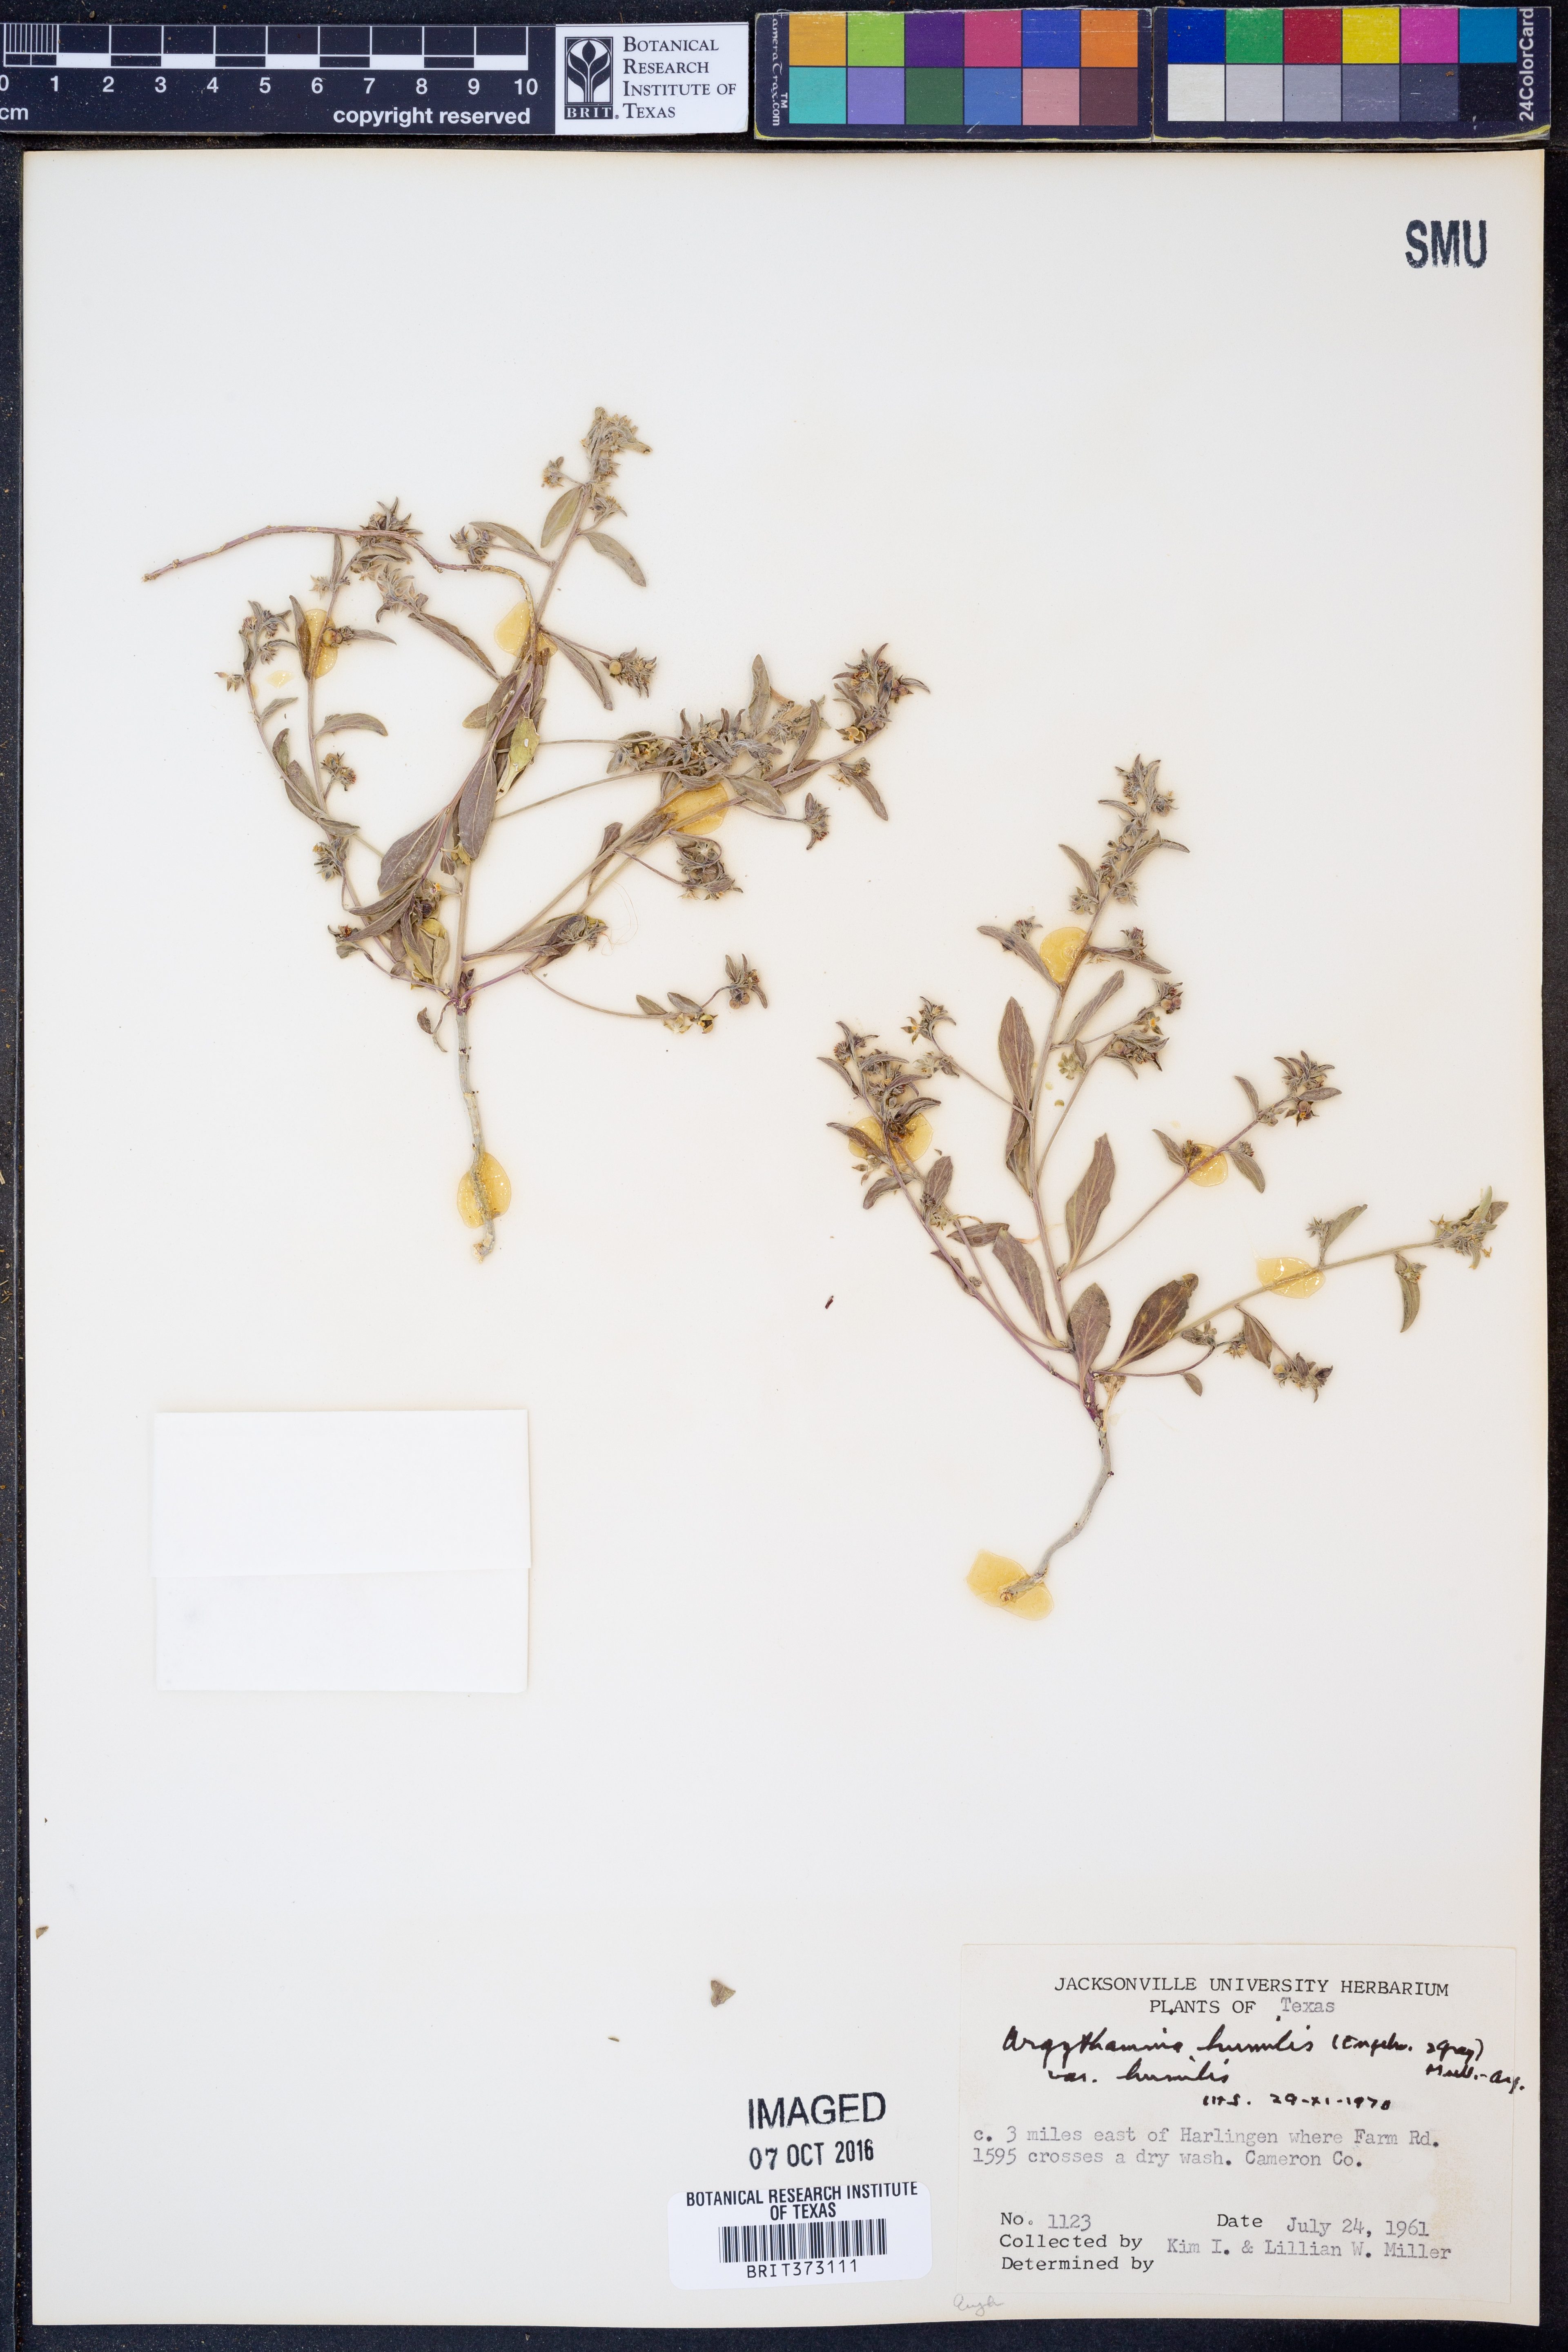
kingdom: Plantae
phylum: Tracheophyta
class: Magnoliopsida
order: Malpighiales
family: Euphorbiaceae
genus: Ditaxis
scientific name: Ditaxis humilis
